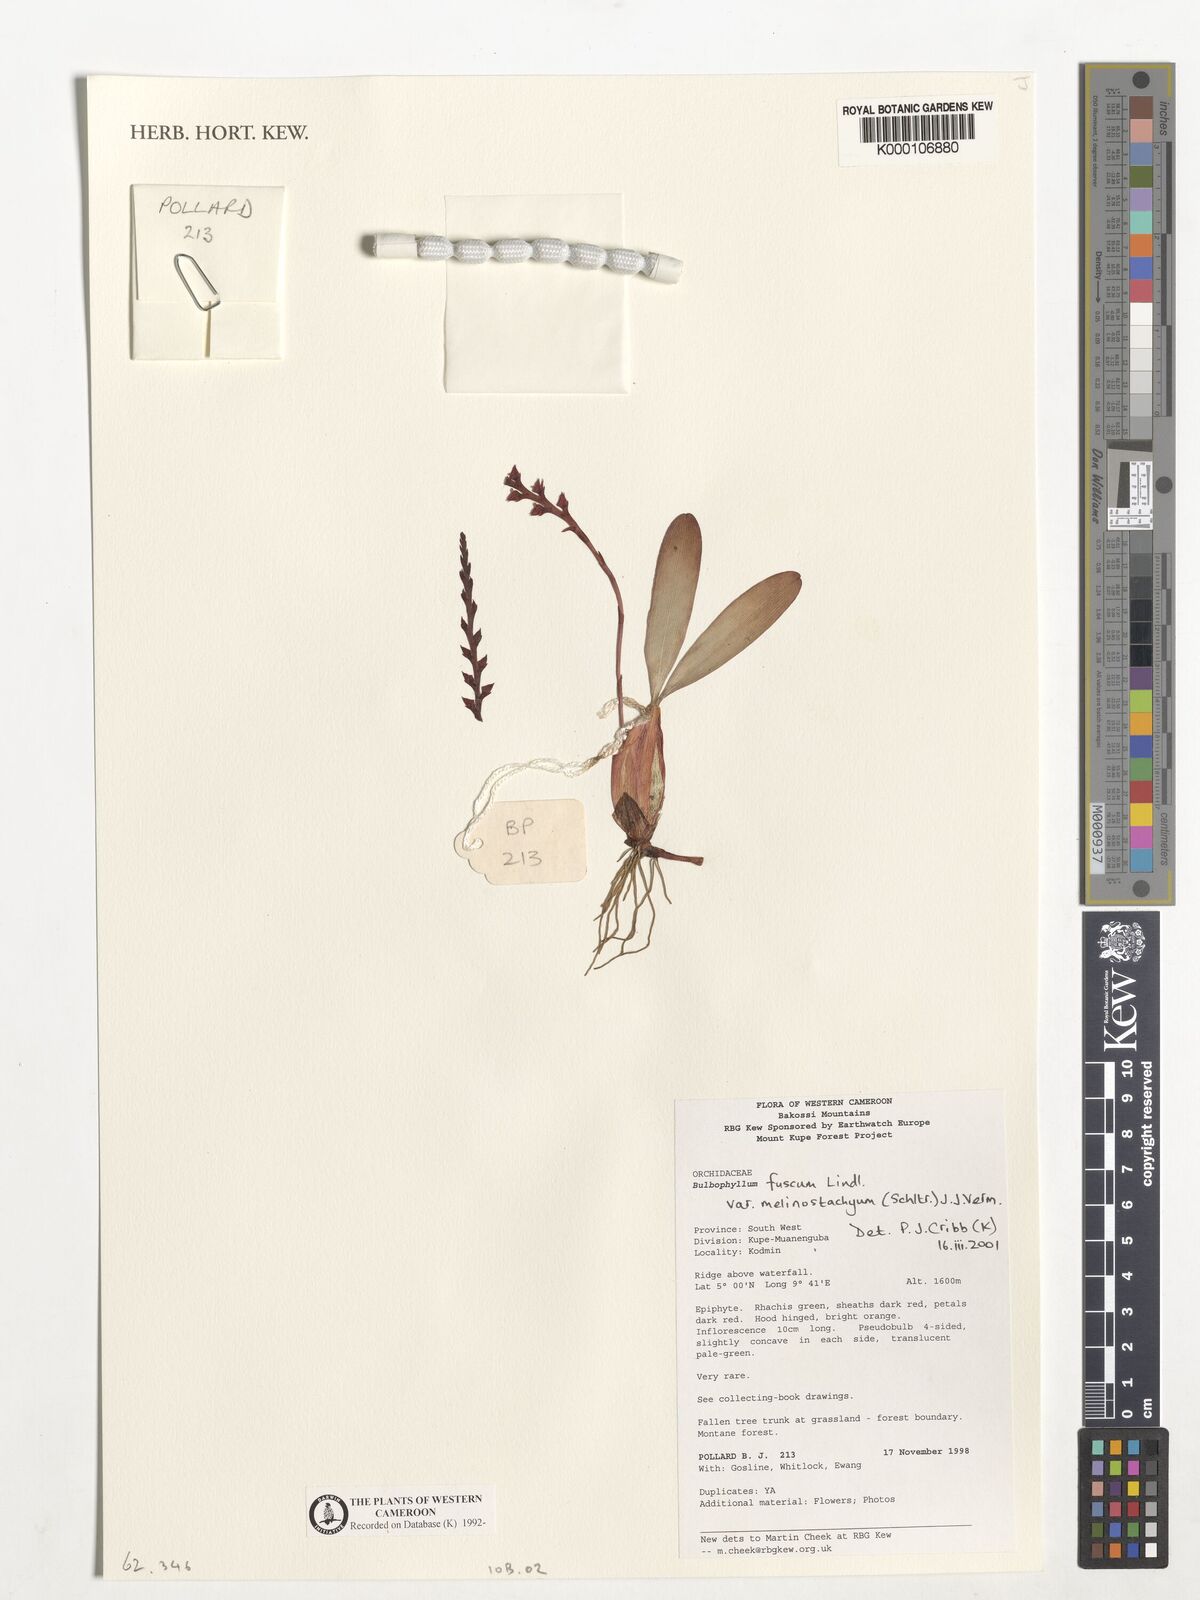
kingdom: Plantae
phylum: Tracheophyta
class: Liliopsida
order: Asparagales
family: Orchidaceae
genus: Bulbophyllum
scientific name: Bulbophyllum fuscum
